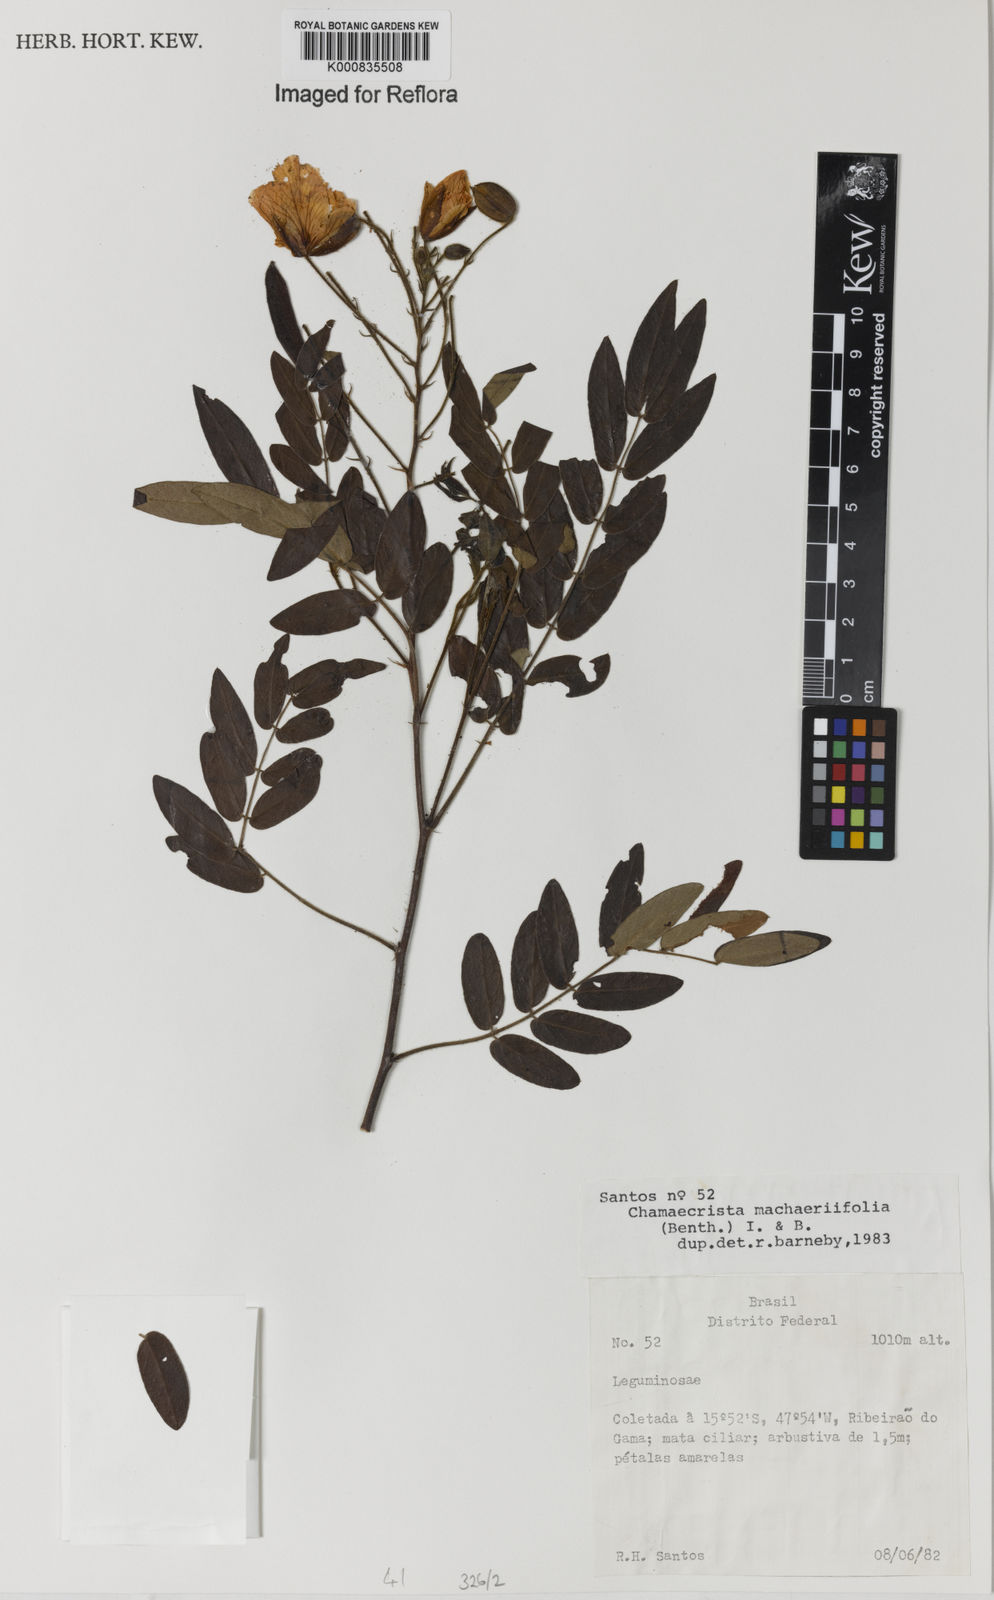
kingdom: Plantae
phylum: Tracheophyta
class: Magnoliopsida
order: Fabales
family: Fabaceae
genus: Chamaecrista
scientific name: Chamaecrista machaeriifolia
